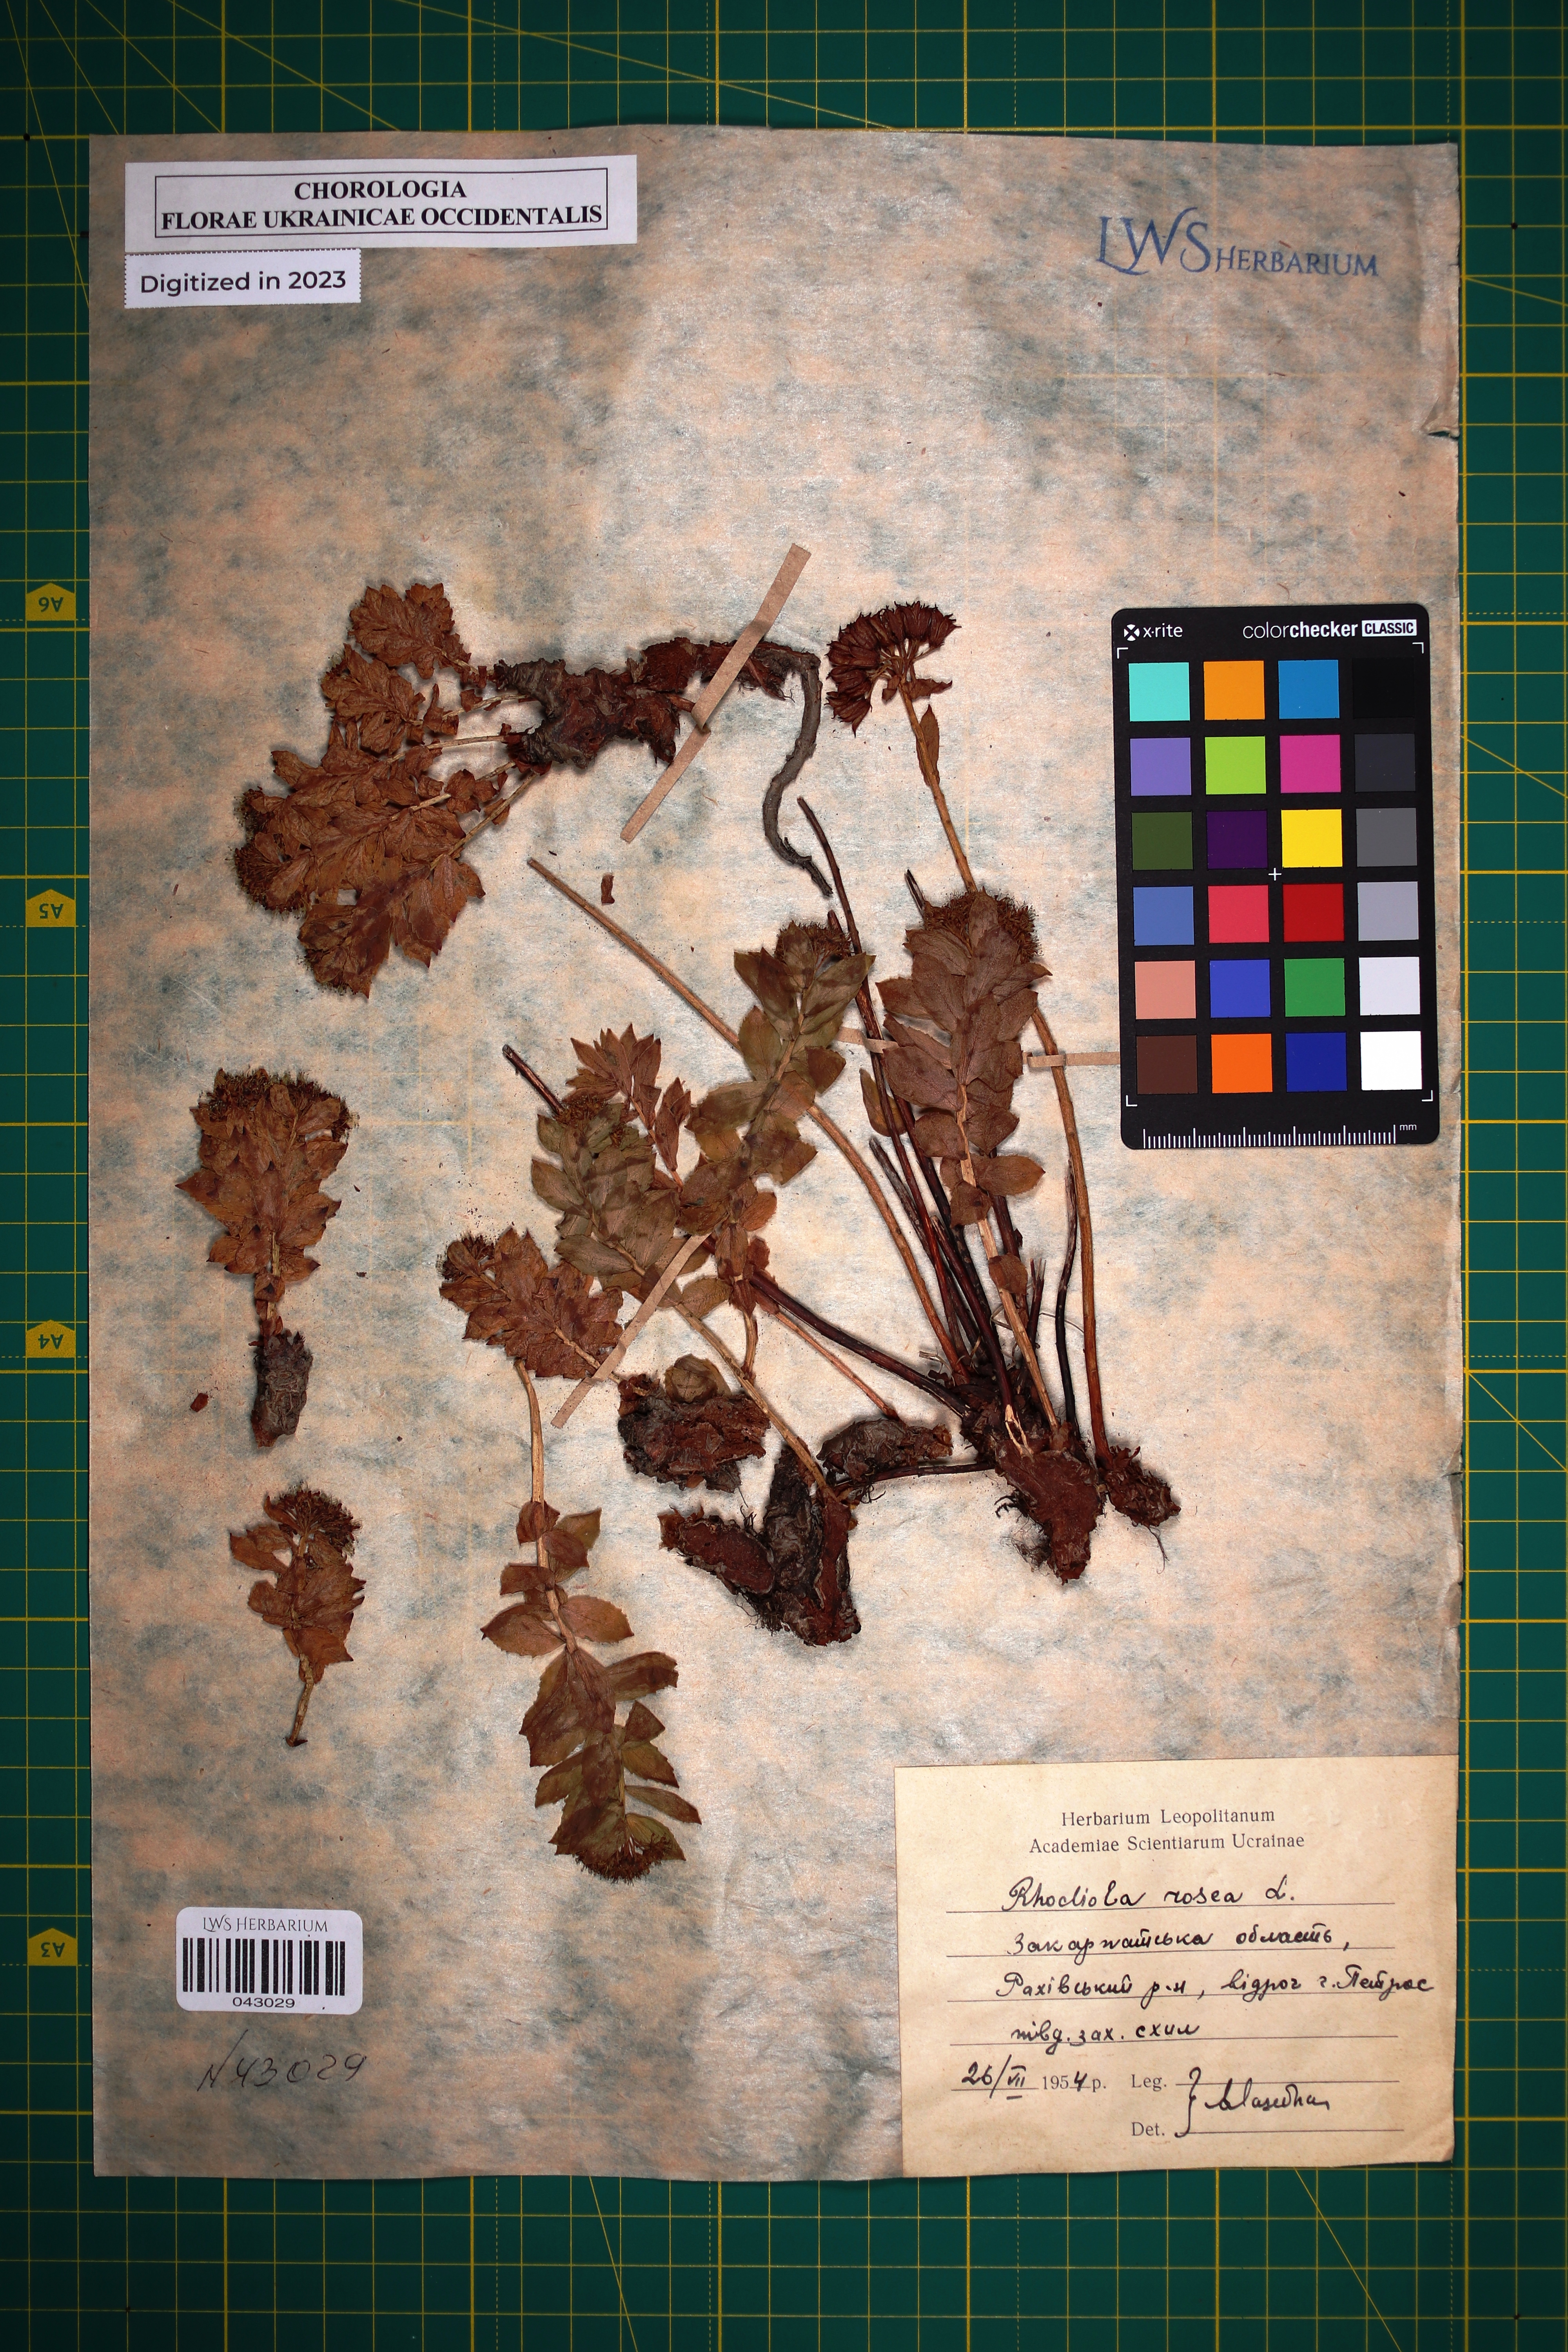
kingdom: Plantae
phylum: Tracheophyta
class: Magnoliopsida
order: Saxifragales
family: Crassulaceae
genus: Rhodiola
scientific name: Rhodiola rosea
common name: Roseroot
